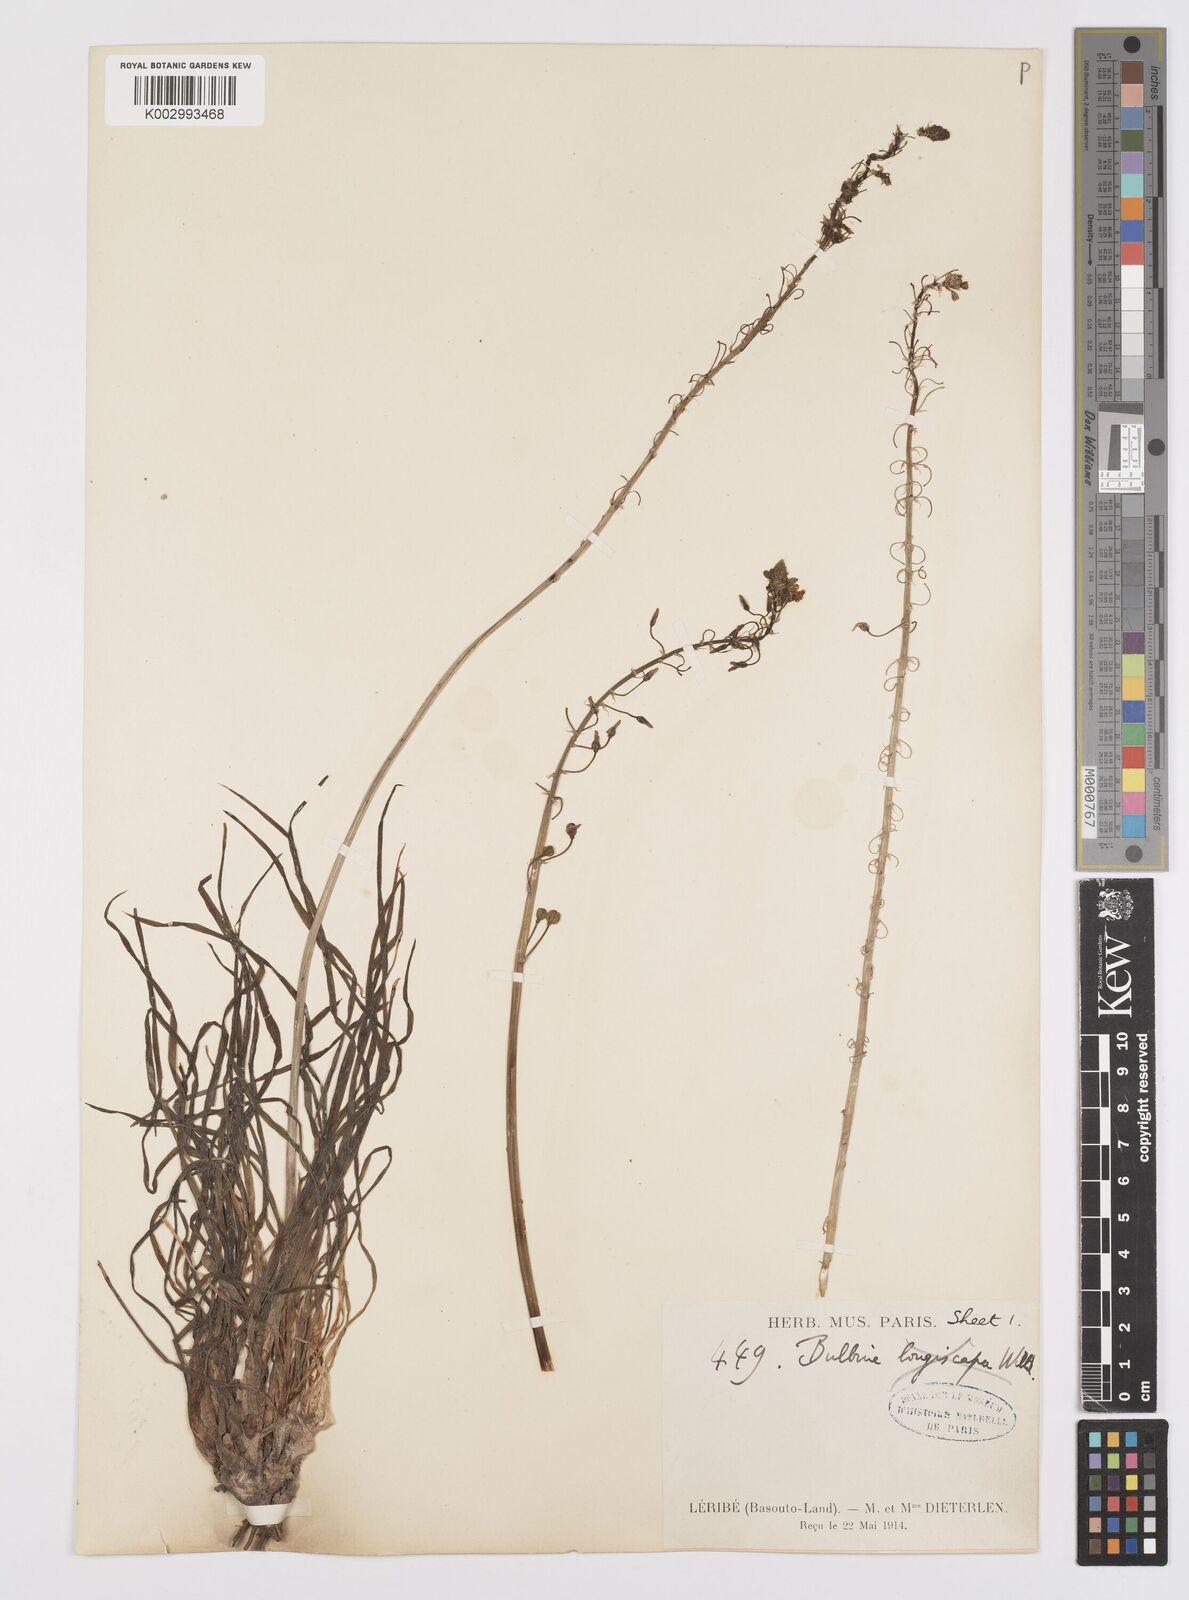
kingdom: Plantae
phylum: Tracheophyta
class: Liliopsida
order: Asparagales
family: Asphodelaceae
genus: Bulbine
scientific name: Bulbine asphodeloides
